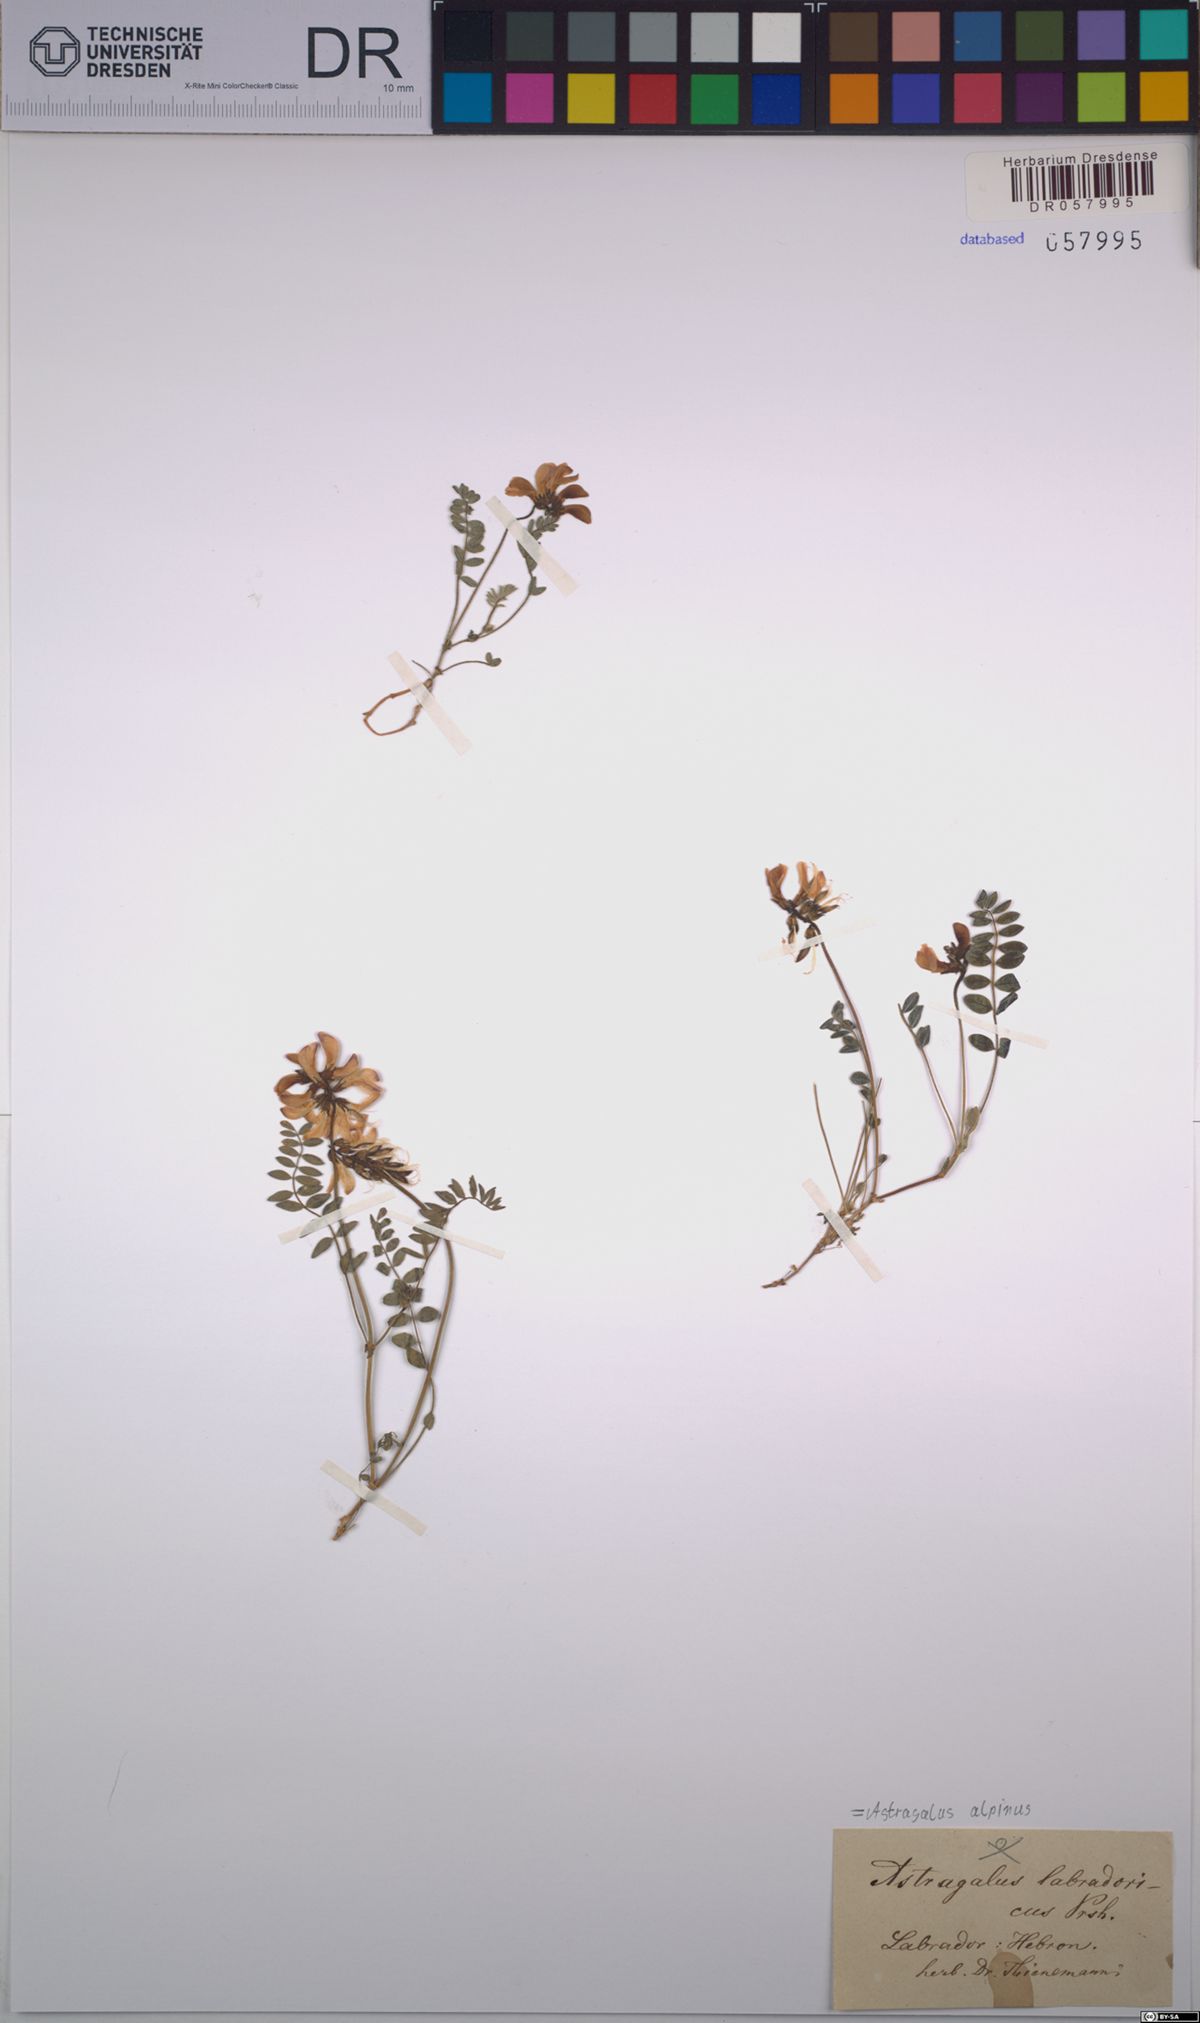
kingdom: Plantae
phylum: Tracheophyta
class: Magnoliopsida
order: Fabales
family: Fabaceae
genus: Astragalus
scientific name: Astragalus alpinus
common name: Alpine milk-vetch
